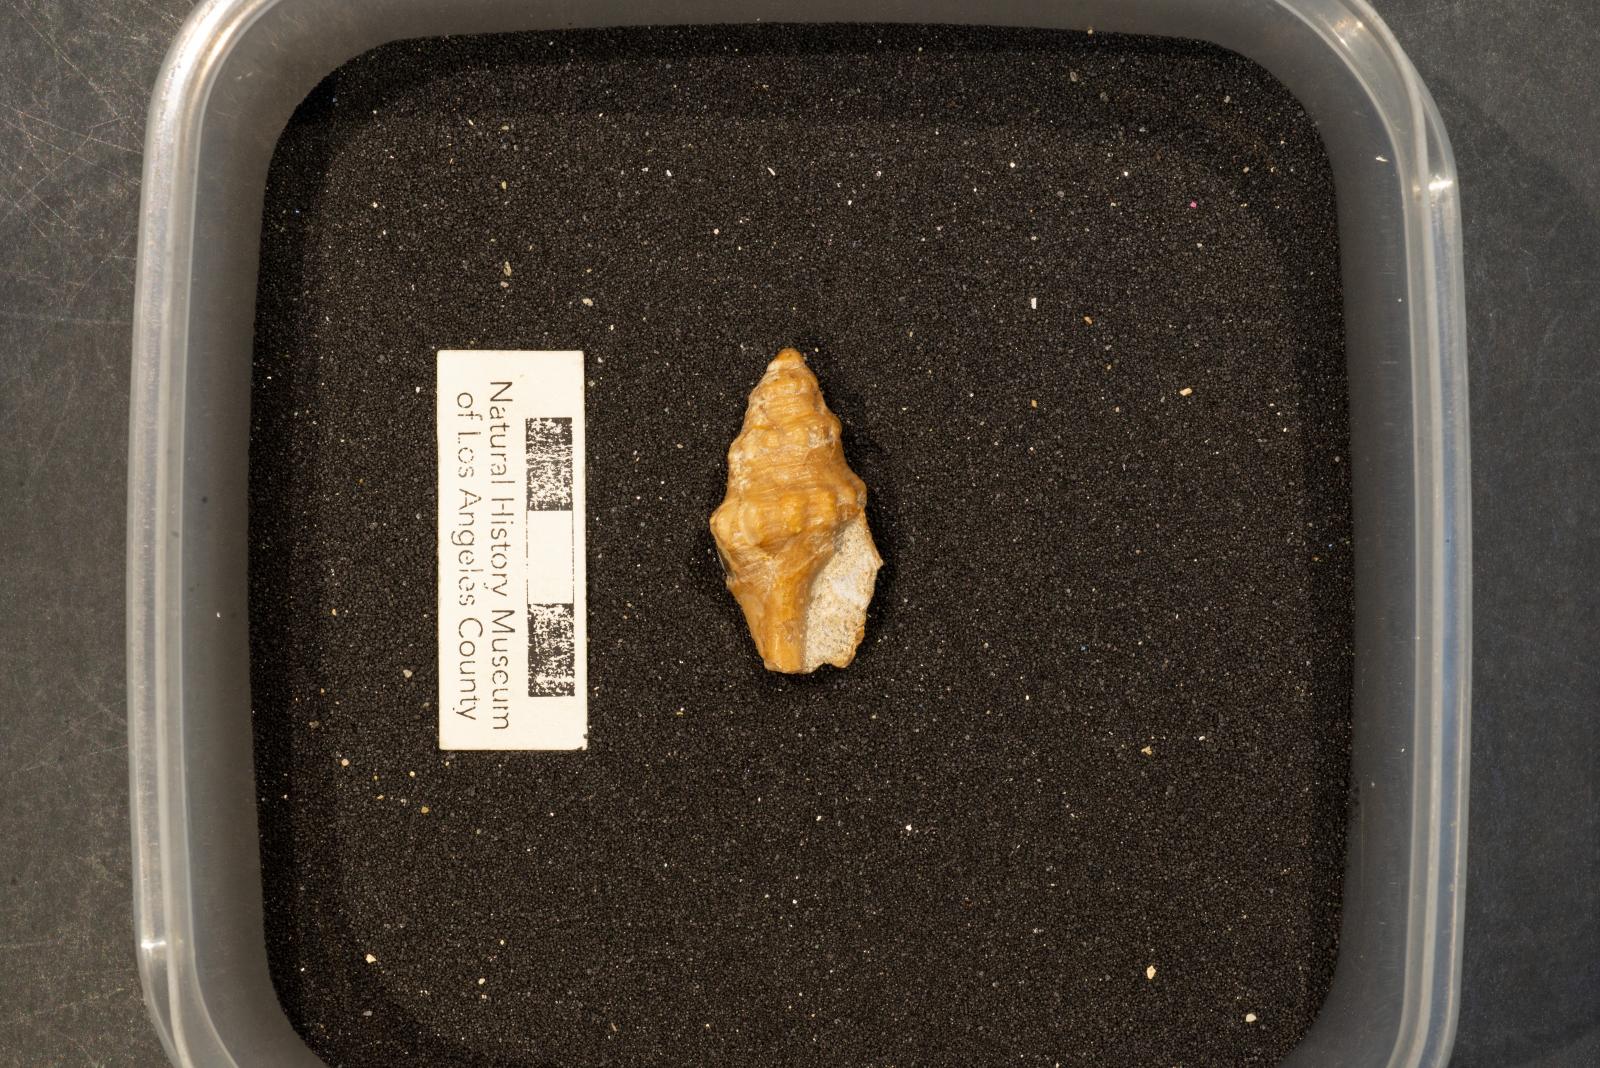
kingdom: Animalia
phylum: Mollusca
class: Gastropoda
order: Neogastropoda
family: Perissityidae
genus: Forsia
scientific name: Forsia popenoei
